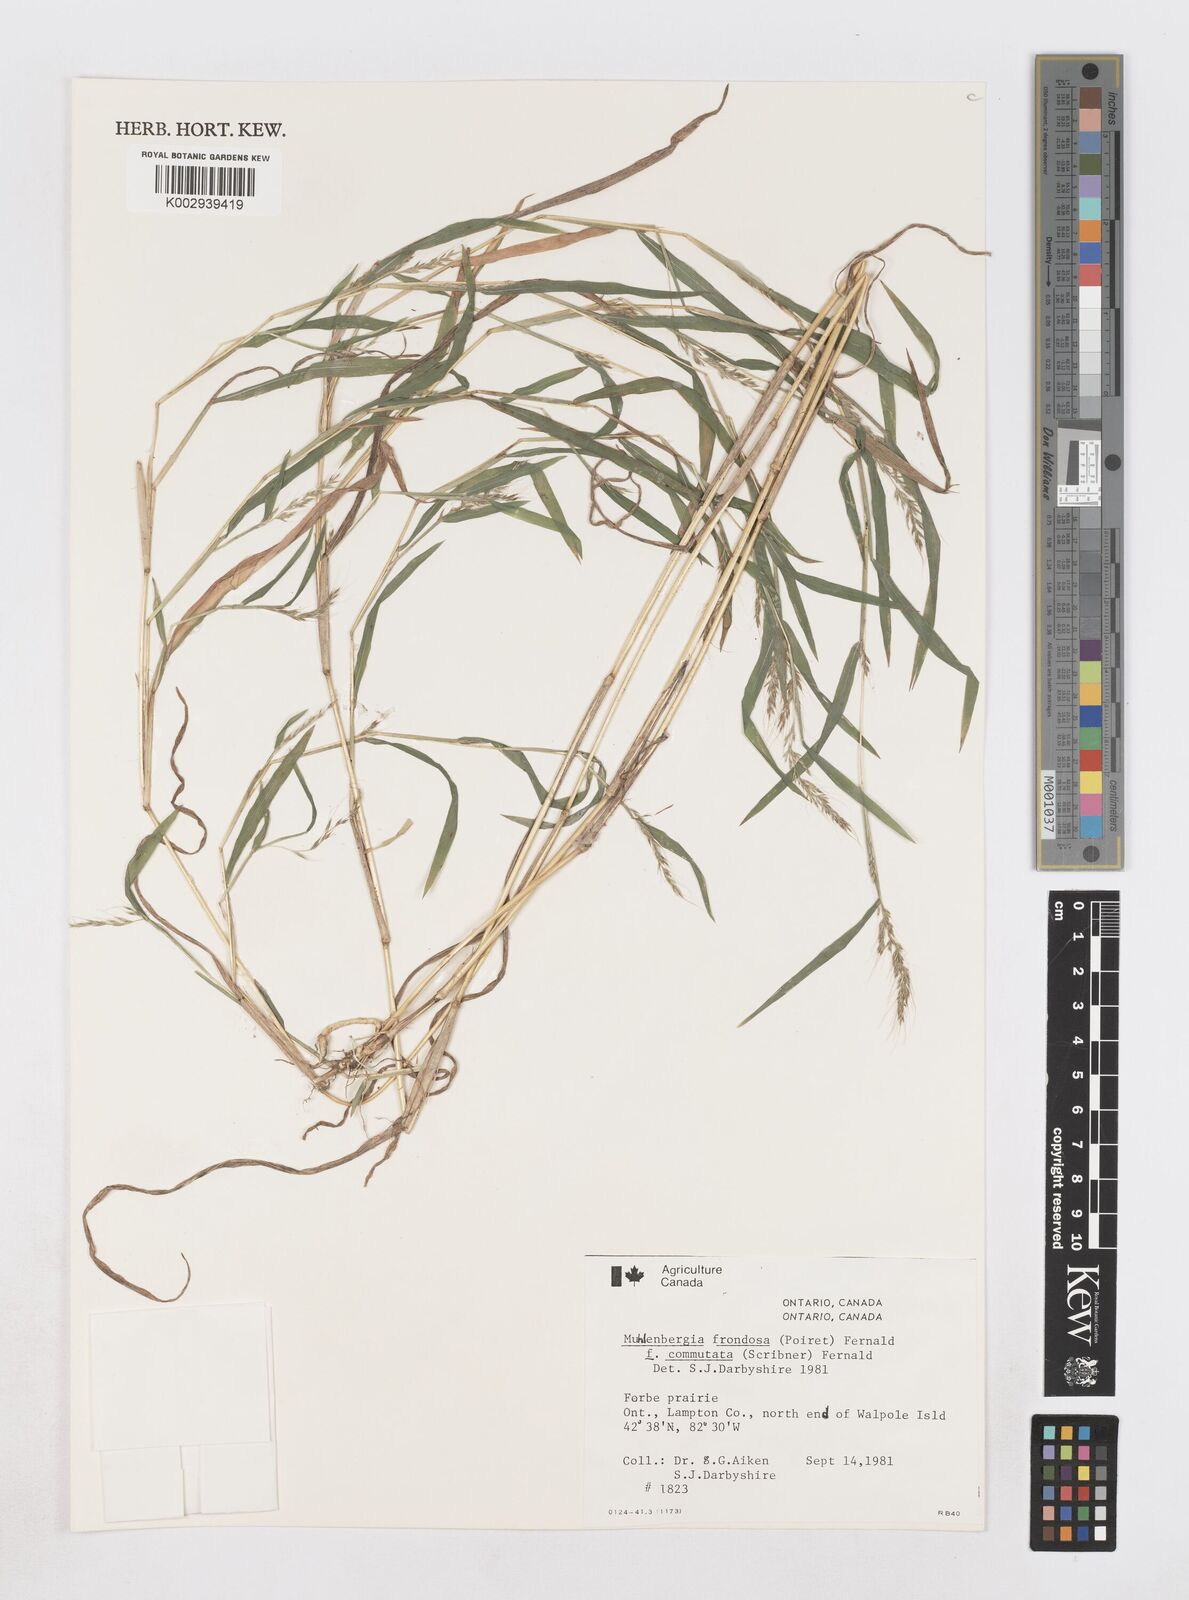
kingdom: Plantae
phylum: Tracheophyta
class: Liliopsida
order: Poales
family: Poaceae
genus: Muhlenbergia
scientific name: Muhlenbergia frondosa
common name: Common satingrass
